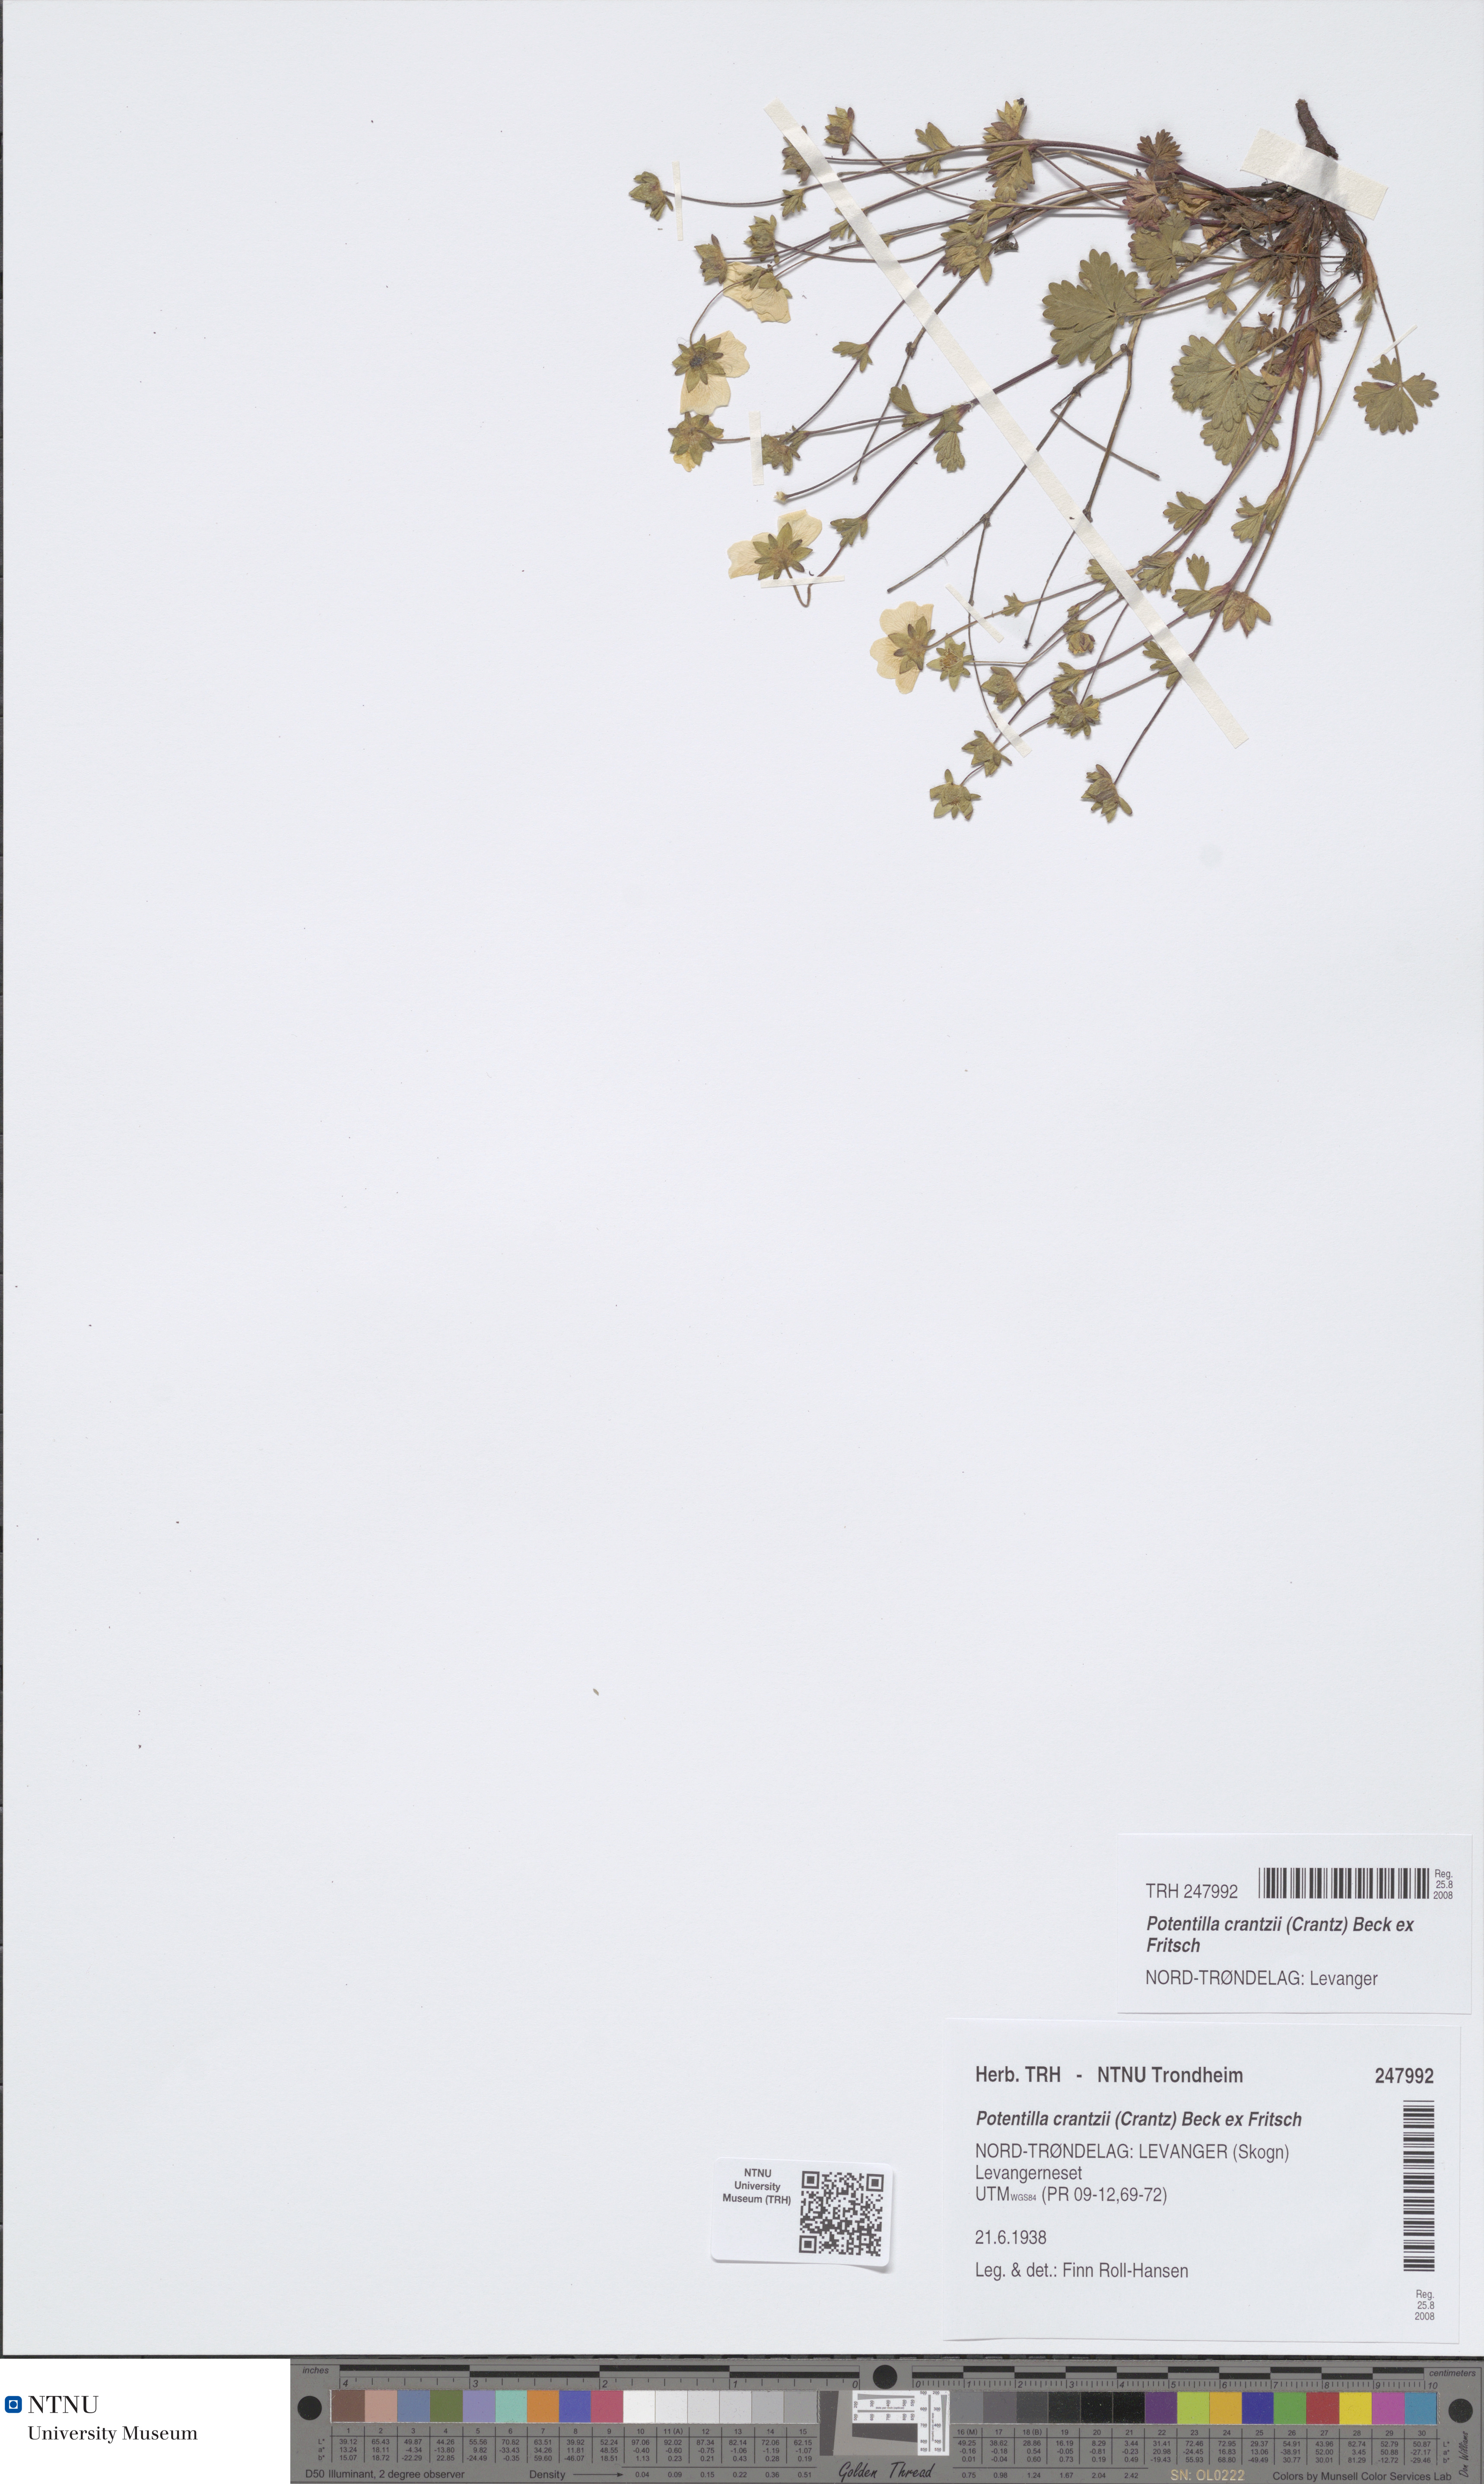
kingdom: Plantae
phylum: Tracheophyta
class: Magnoliopsida
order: Rosales
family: Rosaceae
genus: Potentilla
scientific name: Potentilla crantzii
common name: Alpine cinquefoil
